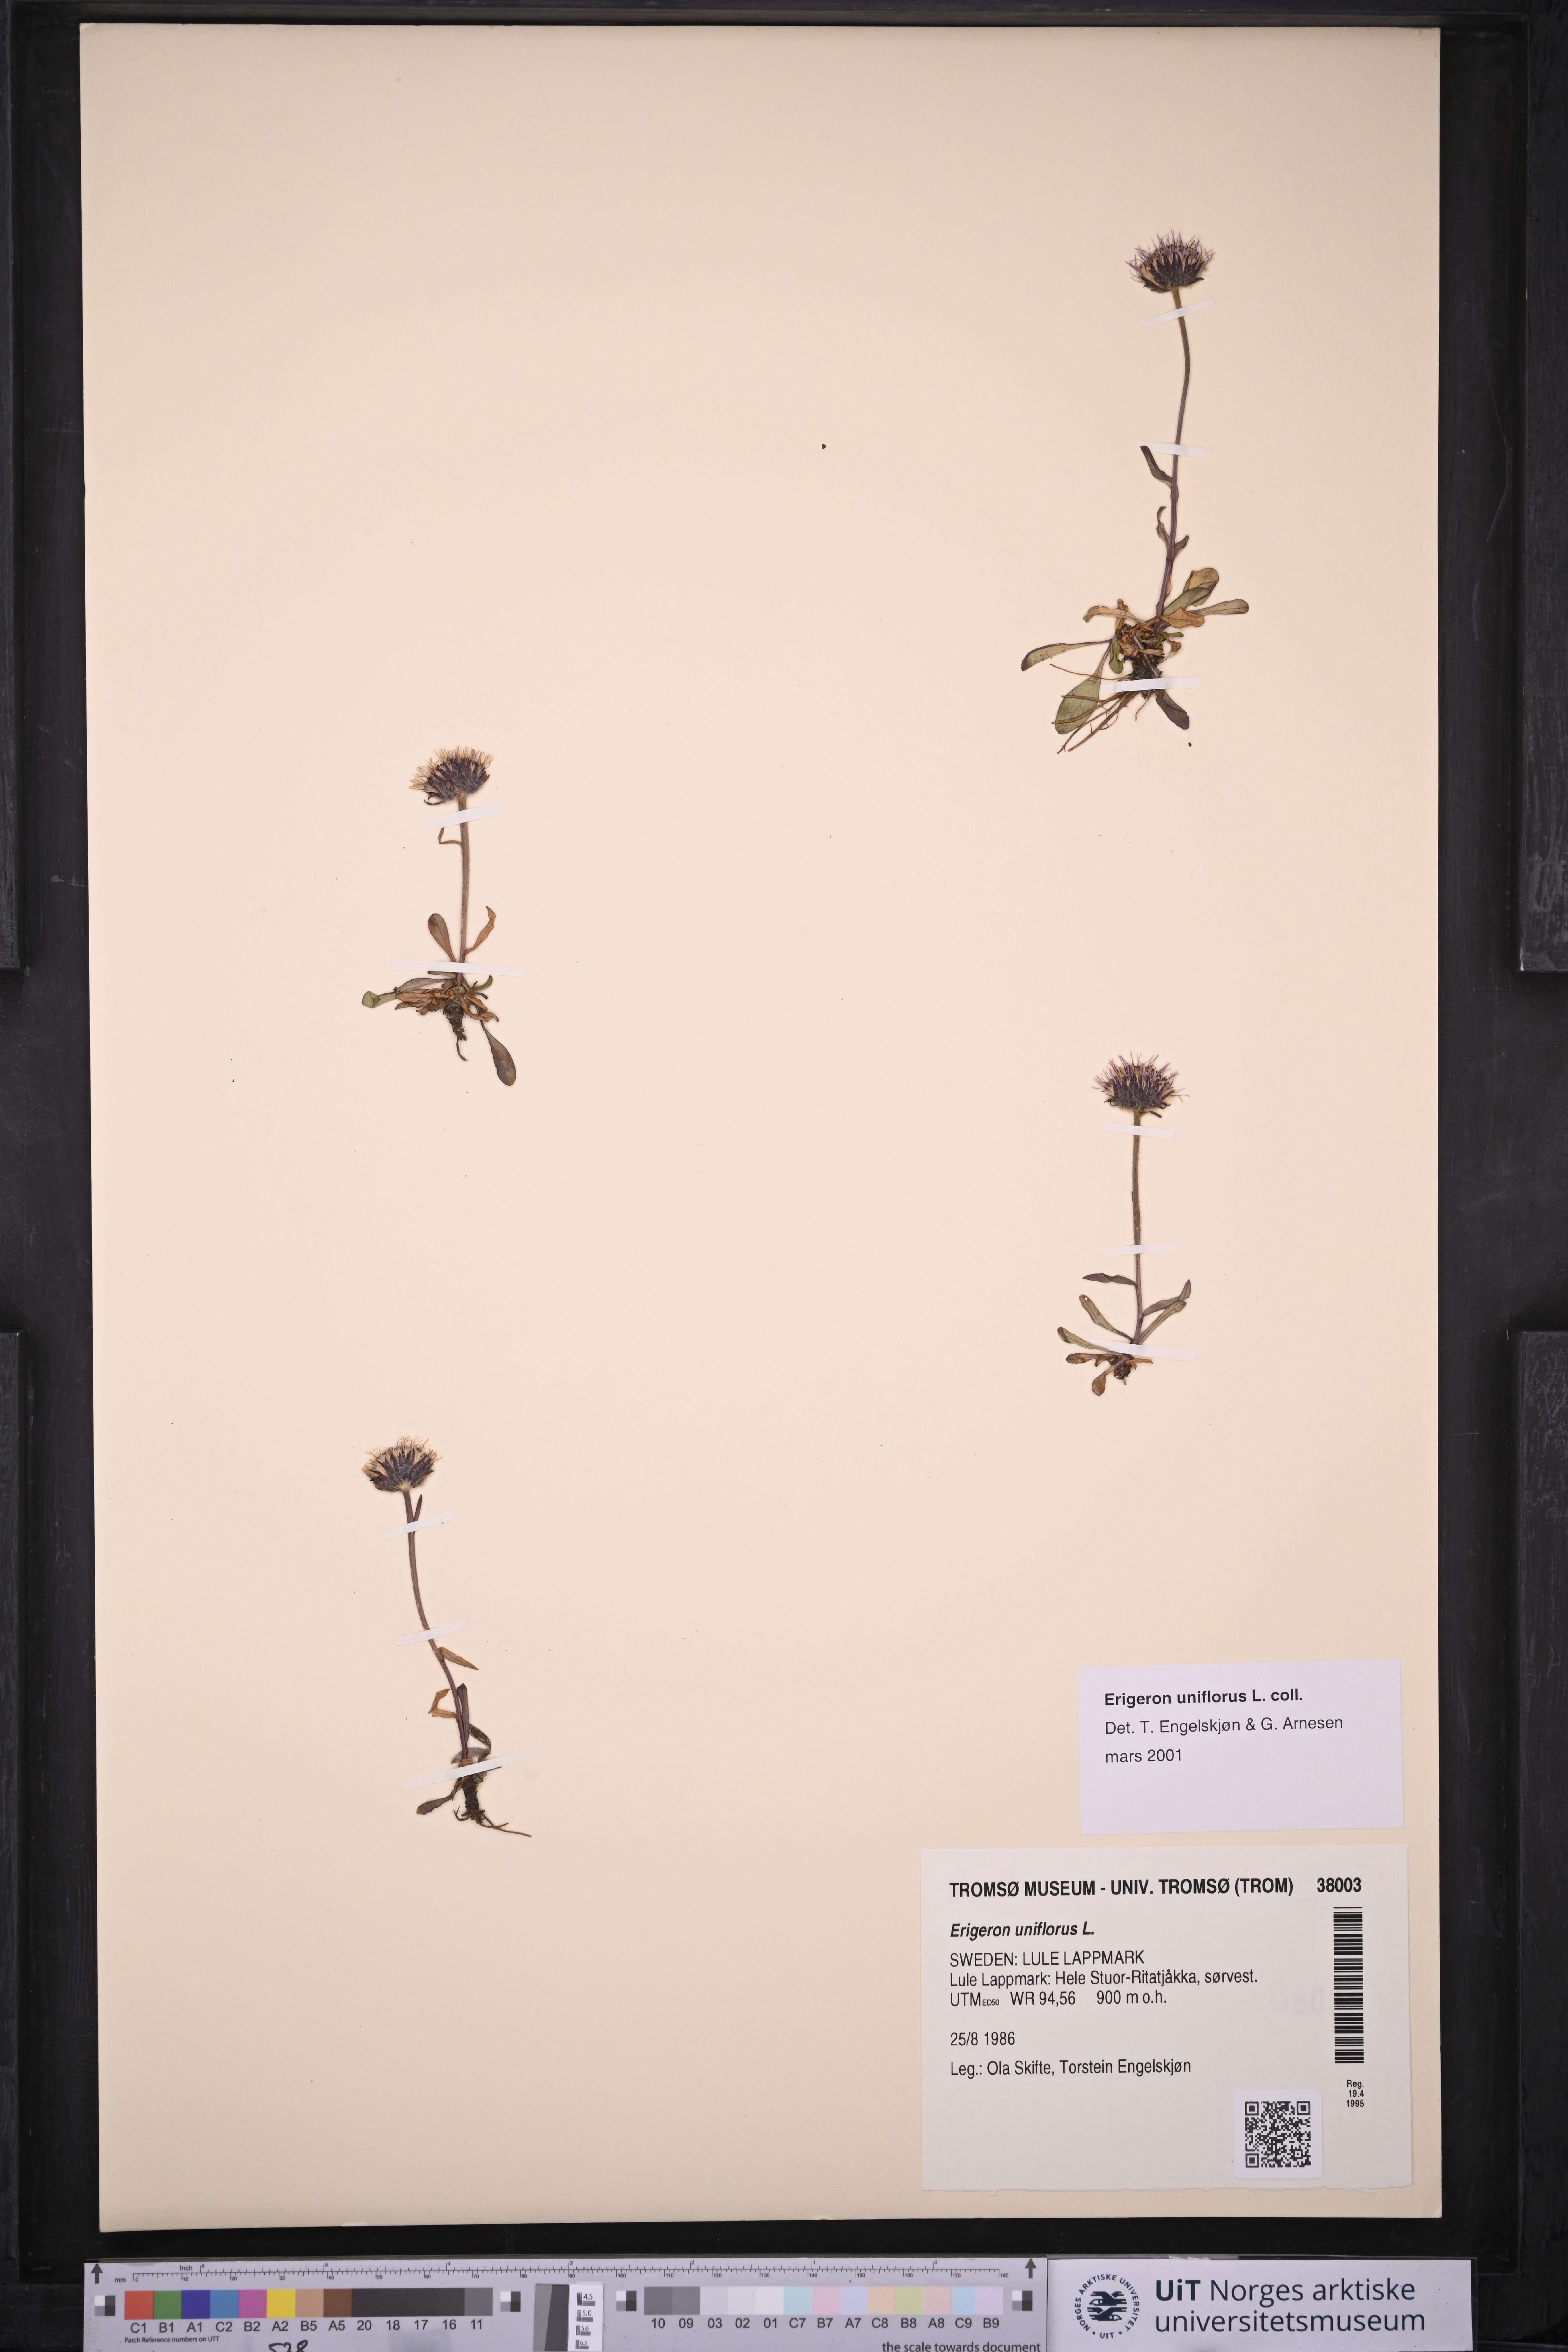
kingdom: Plantae
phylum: Tracheophyta
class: Magnoliopsida
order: Asterales
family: Asteraceae
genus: Erigeron
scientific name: Erigeron uniflorus
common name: Northern daisy
